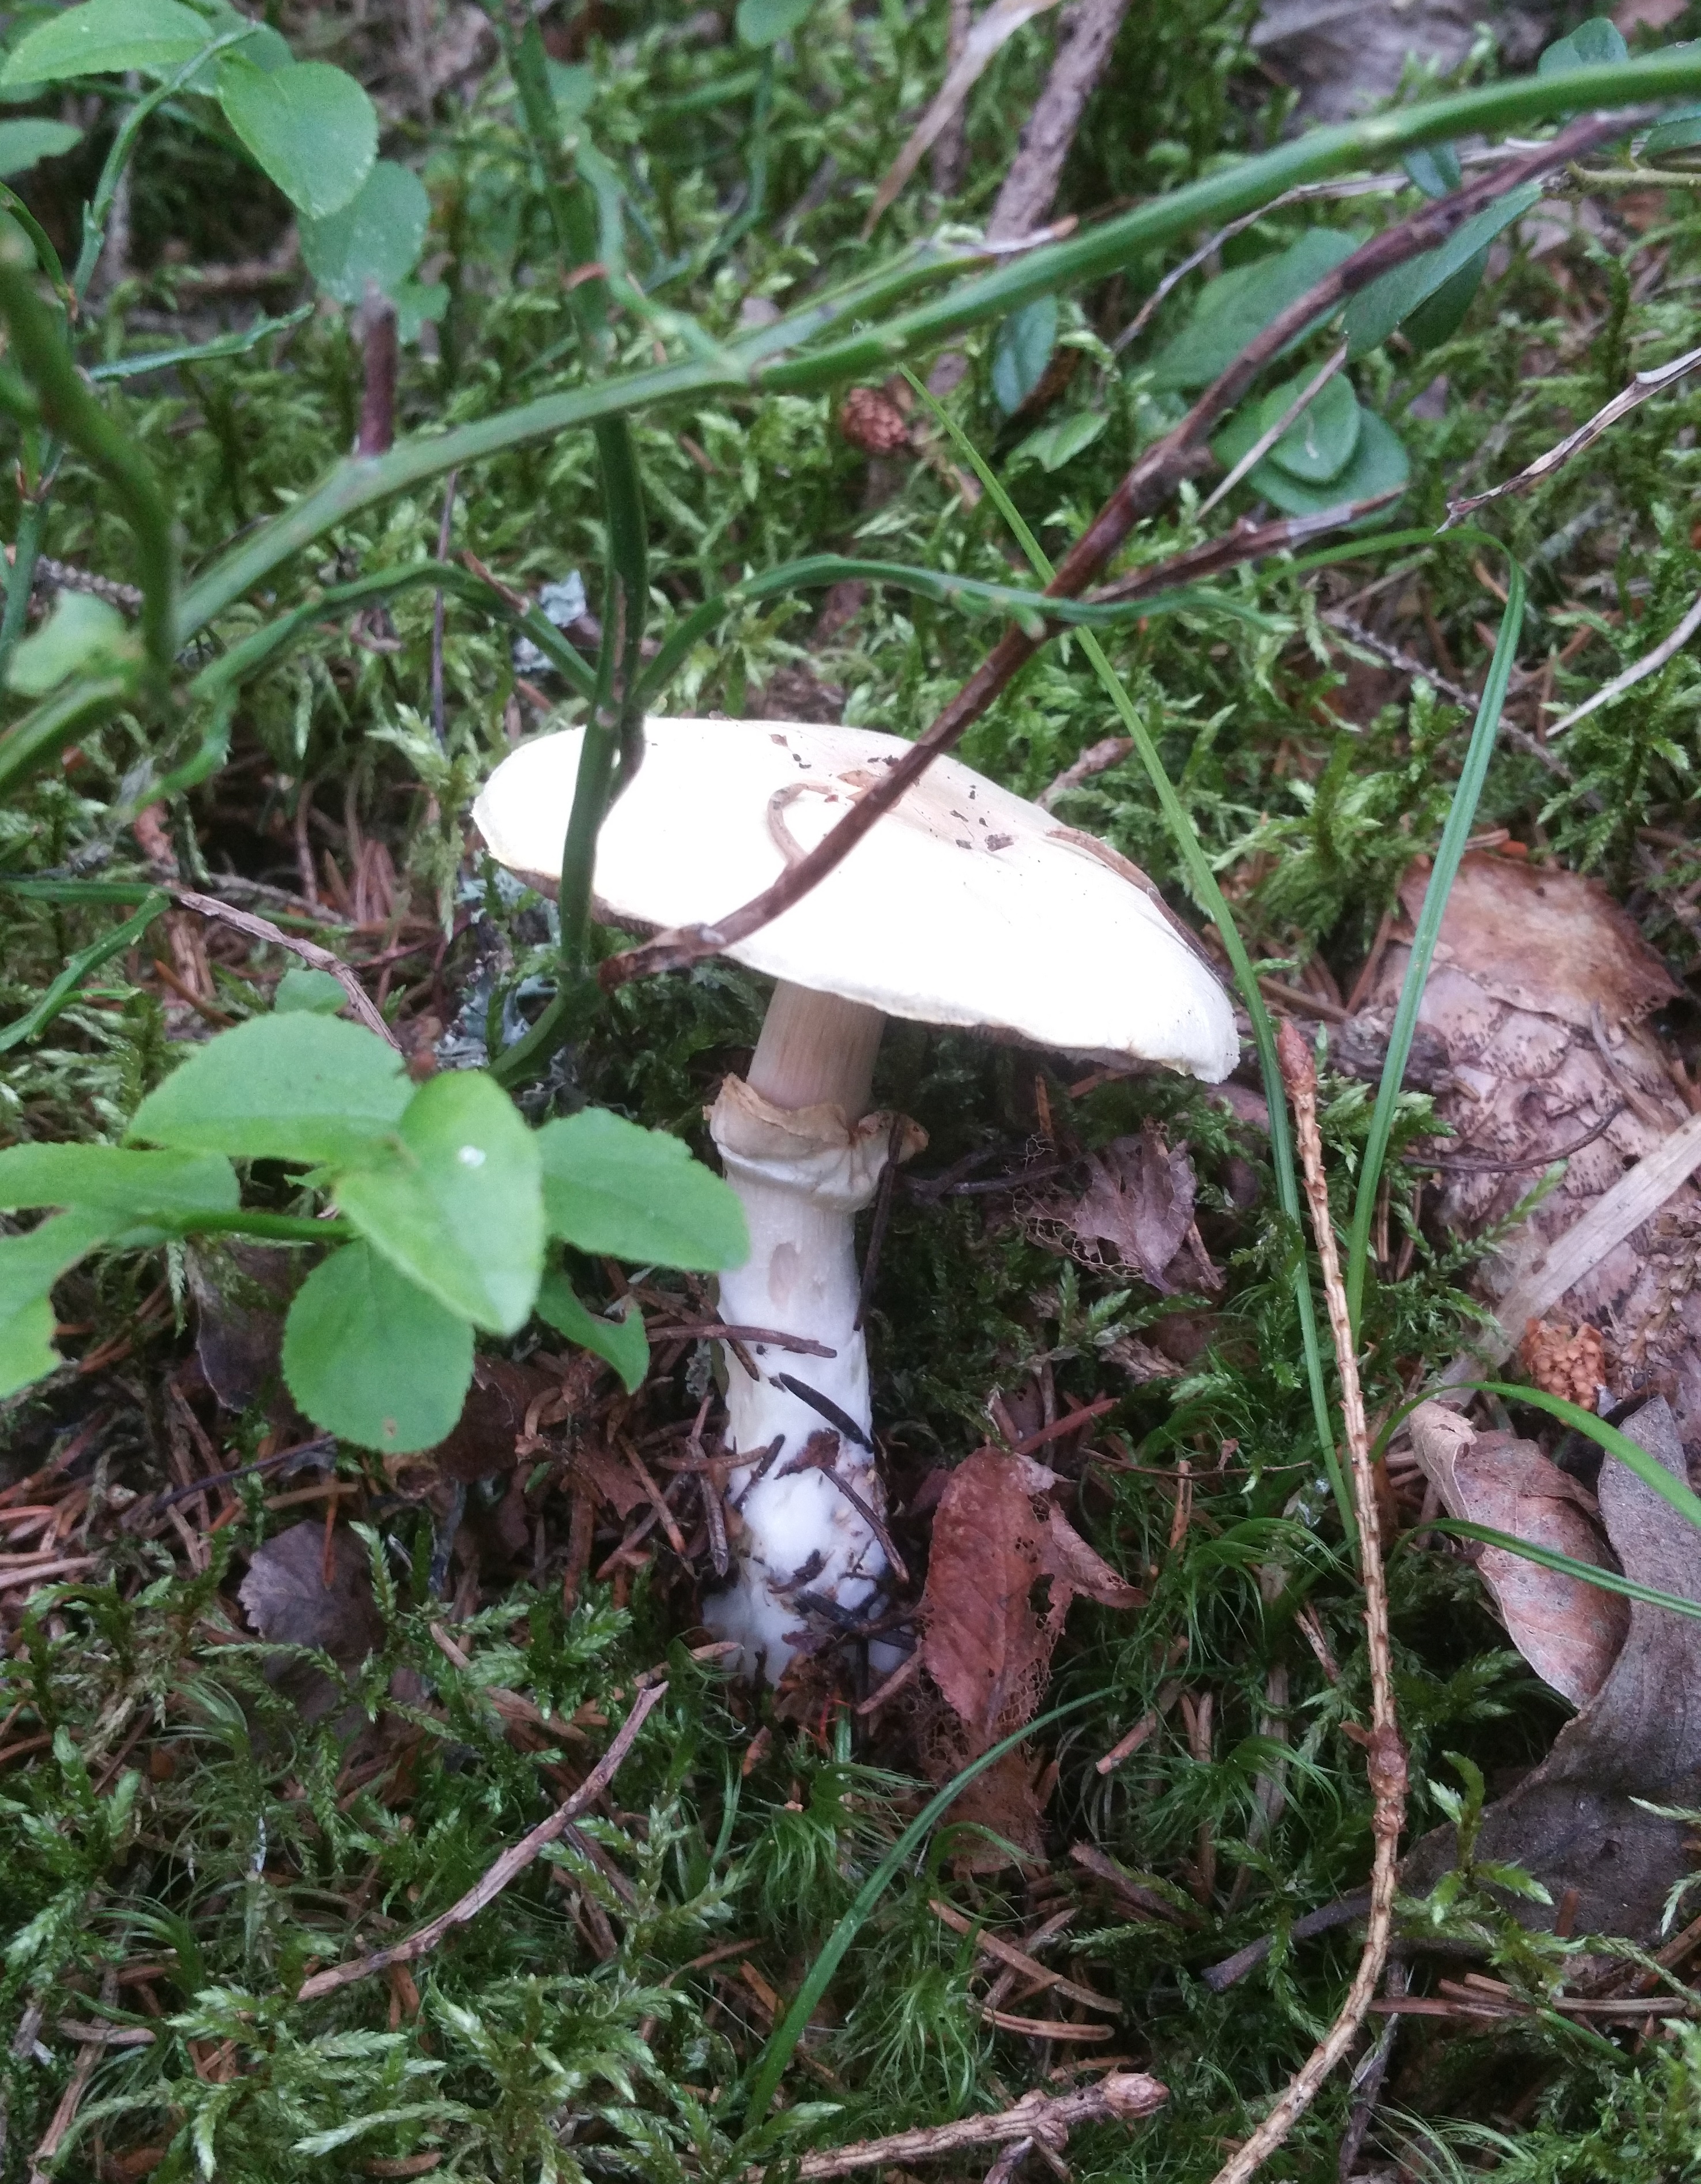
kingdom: Fungi
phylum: Basidiomycota
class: Agaricomycetes
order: Agaricales
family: Agaricaceae
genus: Agaricus
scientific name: Agaricus sylvicola
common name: Wood mushroom
